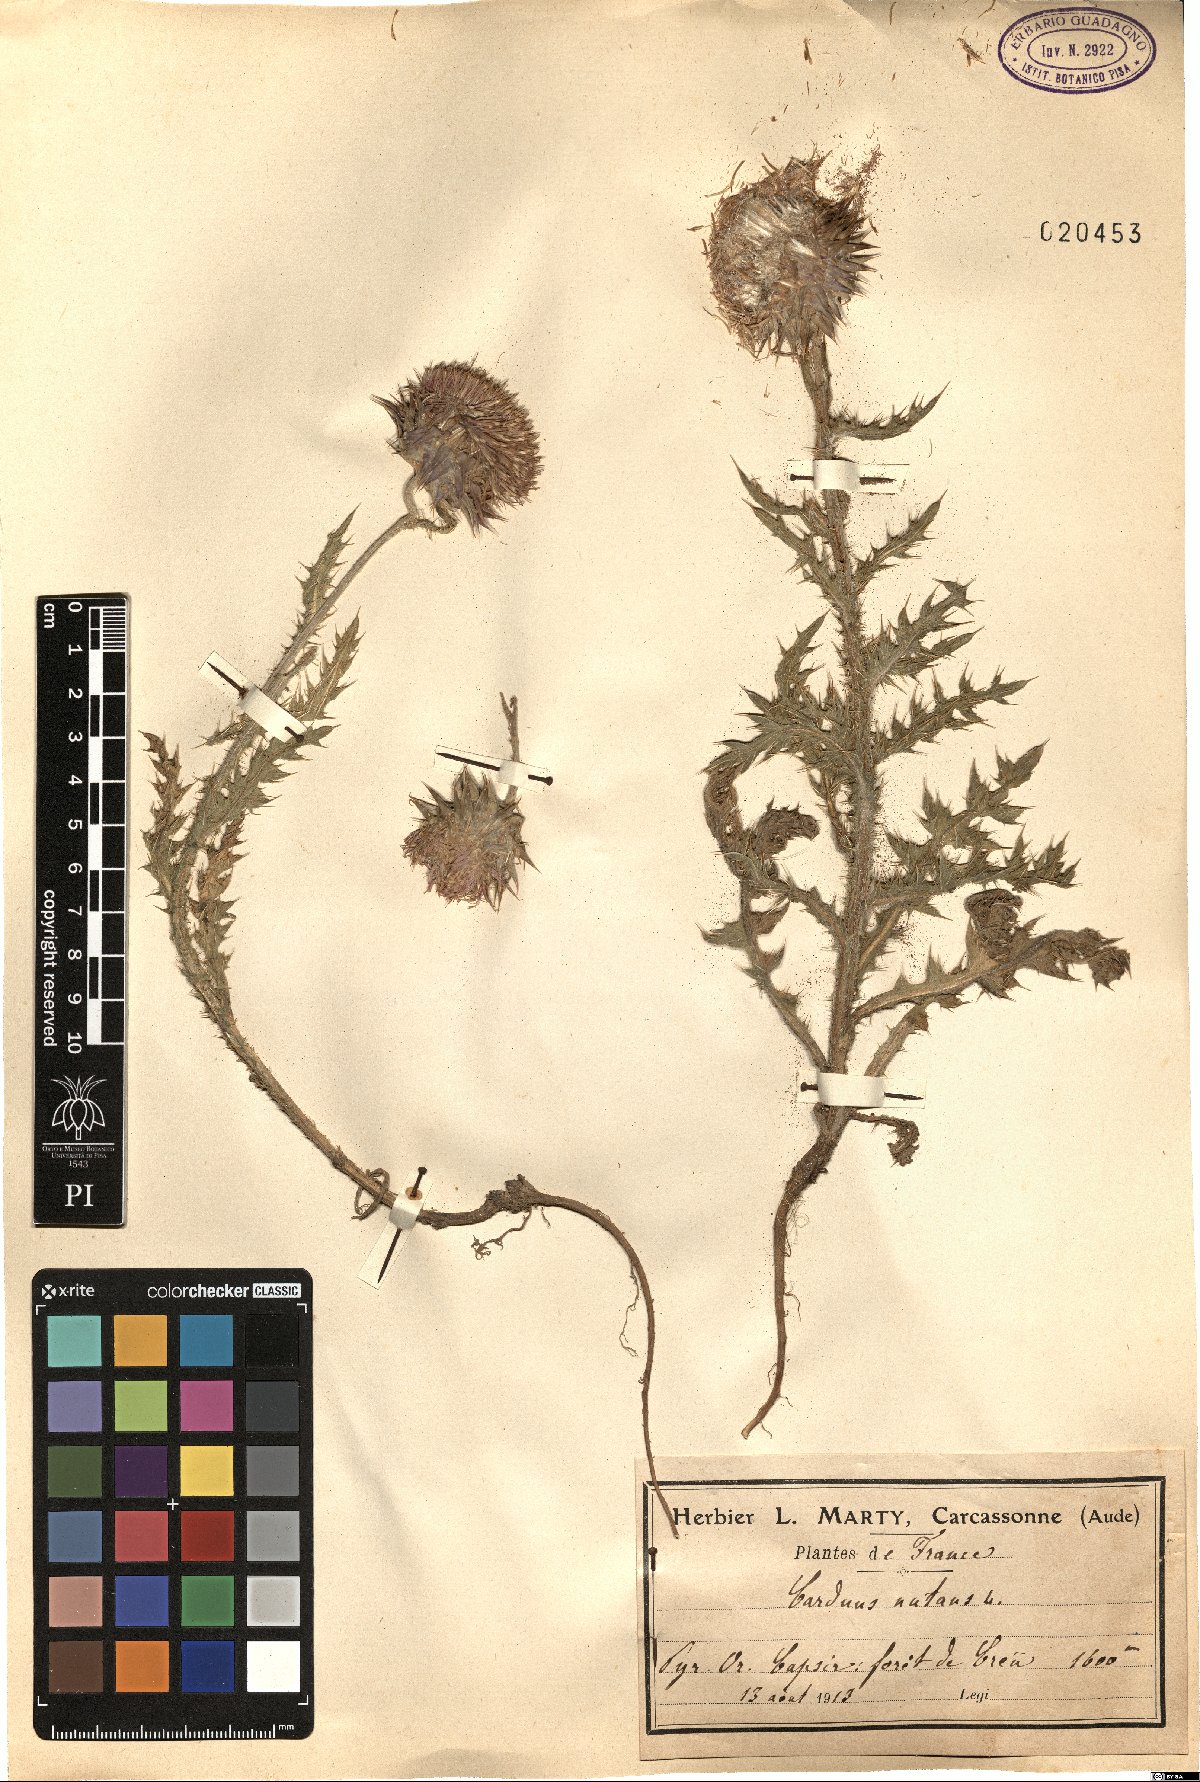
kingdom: Plantae
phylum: Tracheophyta
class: Magnoliopsida
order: Asterales
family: Asteraceae
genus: Carduus
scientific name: Carduus nutans
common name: Musk thistle
